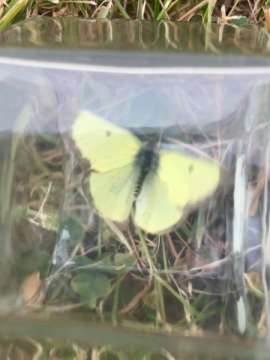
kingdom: Animalia
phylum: Arthropoda
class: Insecta
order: Lepidoptera
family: Pieridae
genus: Colias
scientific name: Colias philodice
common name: Clouded Sulphur
